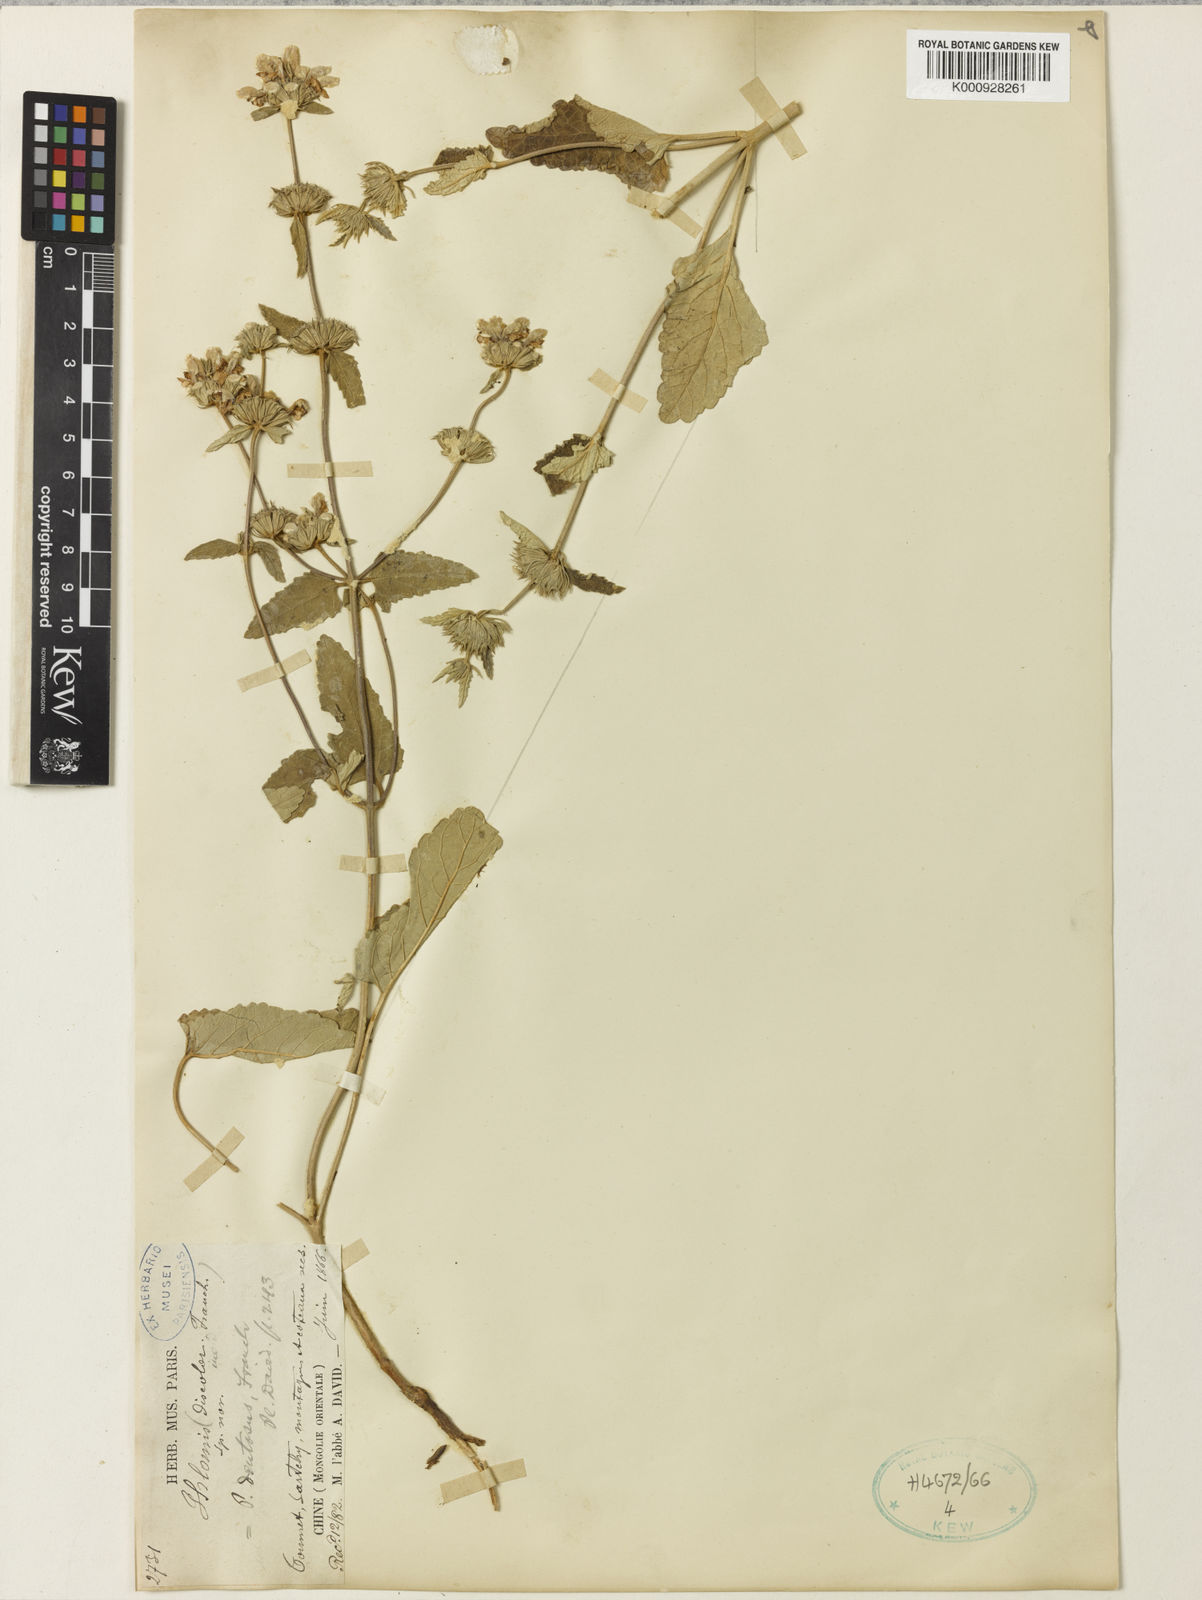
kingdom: Plantae
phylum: Tracheophyta
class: Magnoliopsida
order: Lamiales
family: Lamiaceae
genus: Phlomoides
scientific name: Phlomoides dentosa
